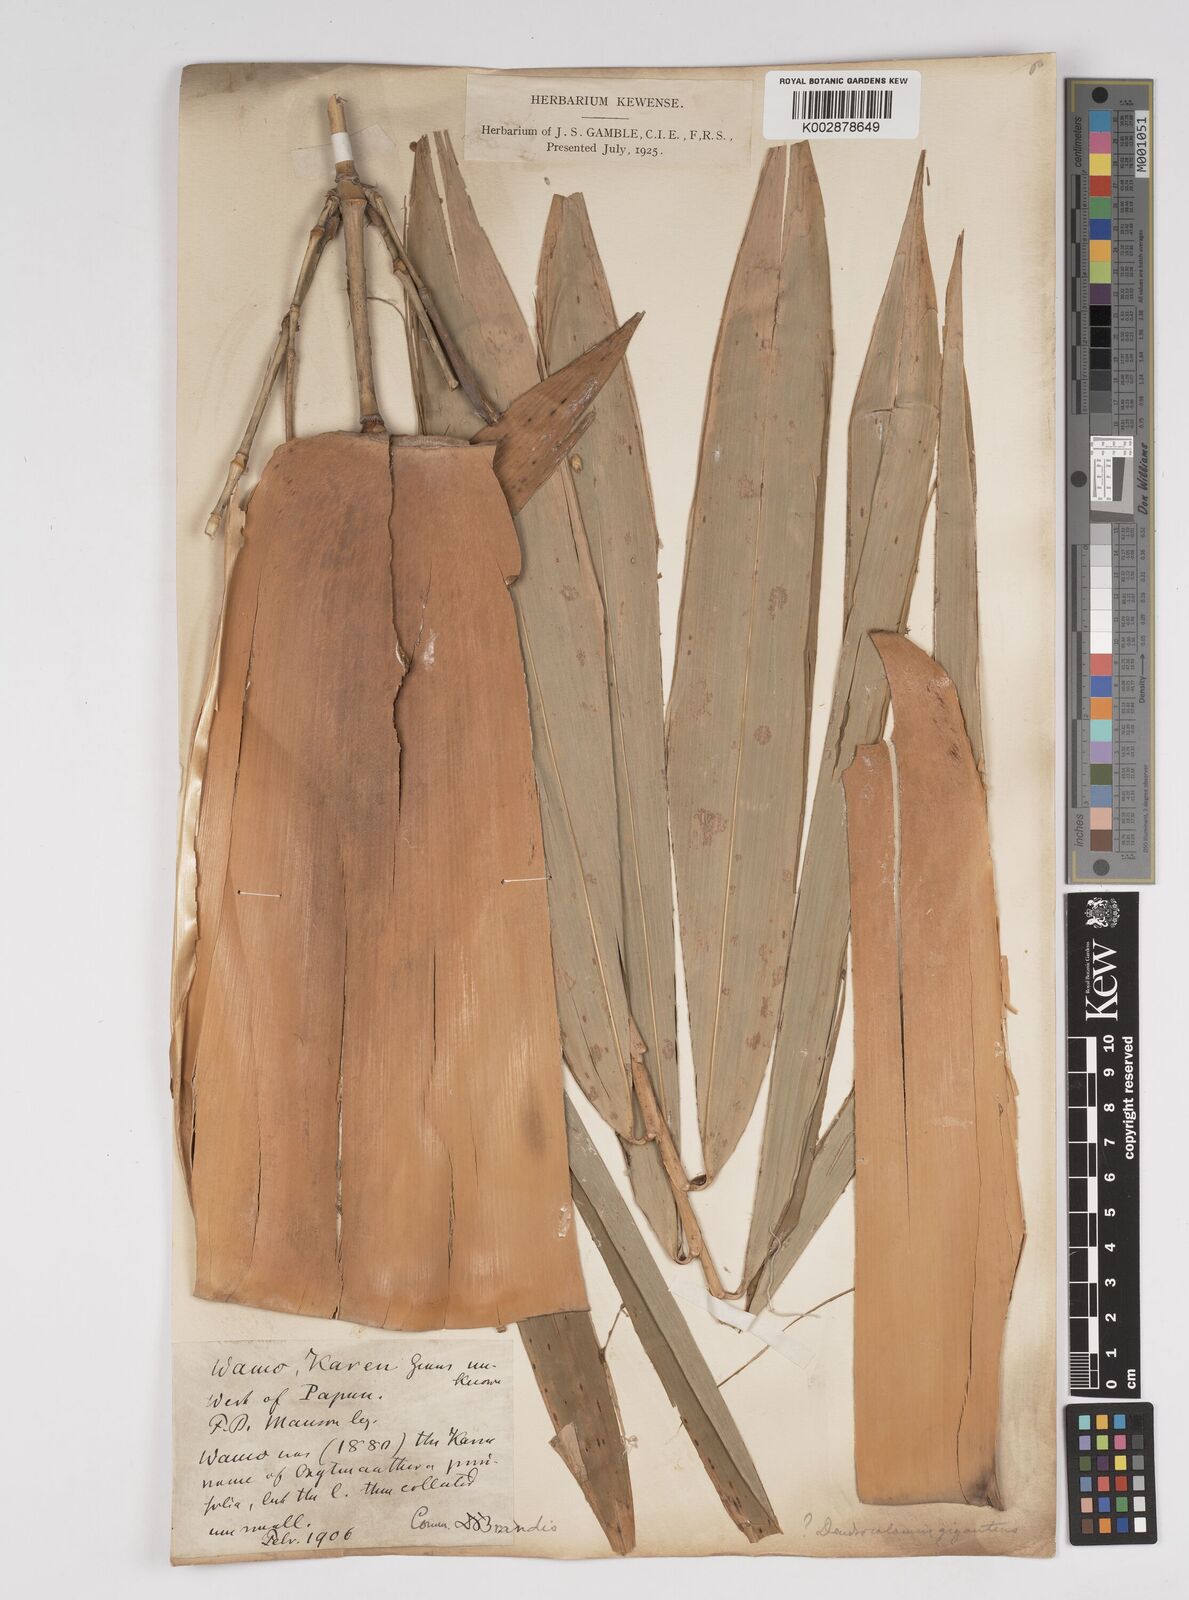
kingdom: Plantae
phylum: Tracheophyta
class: Liliopsida
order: Poales
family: Poaceae
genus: Dendrocalamus
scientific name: Dendrocalamus giganteus
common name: Giant bamboo
